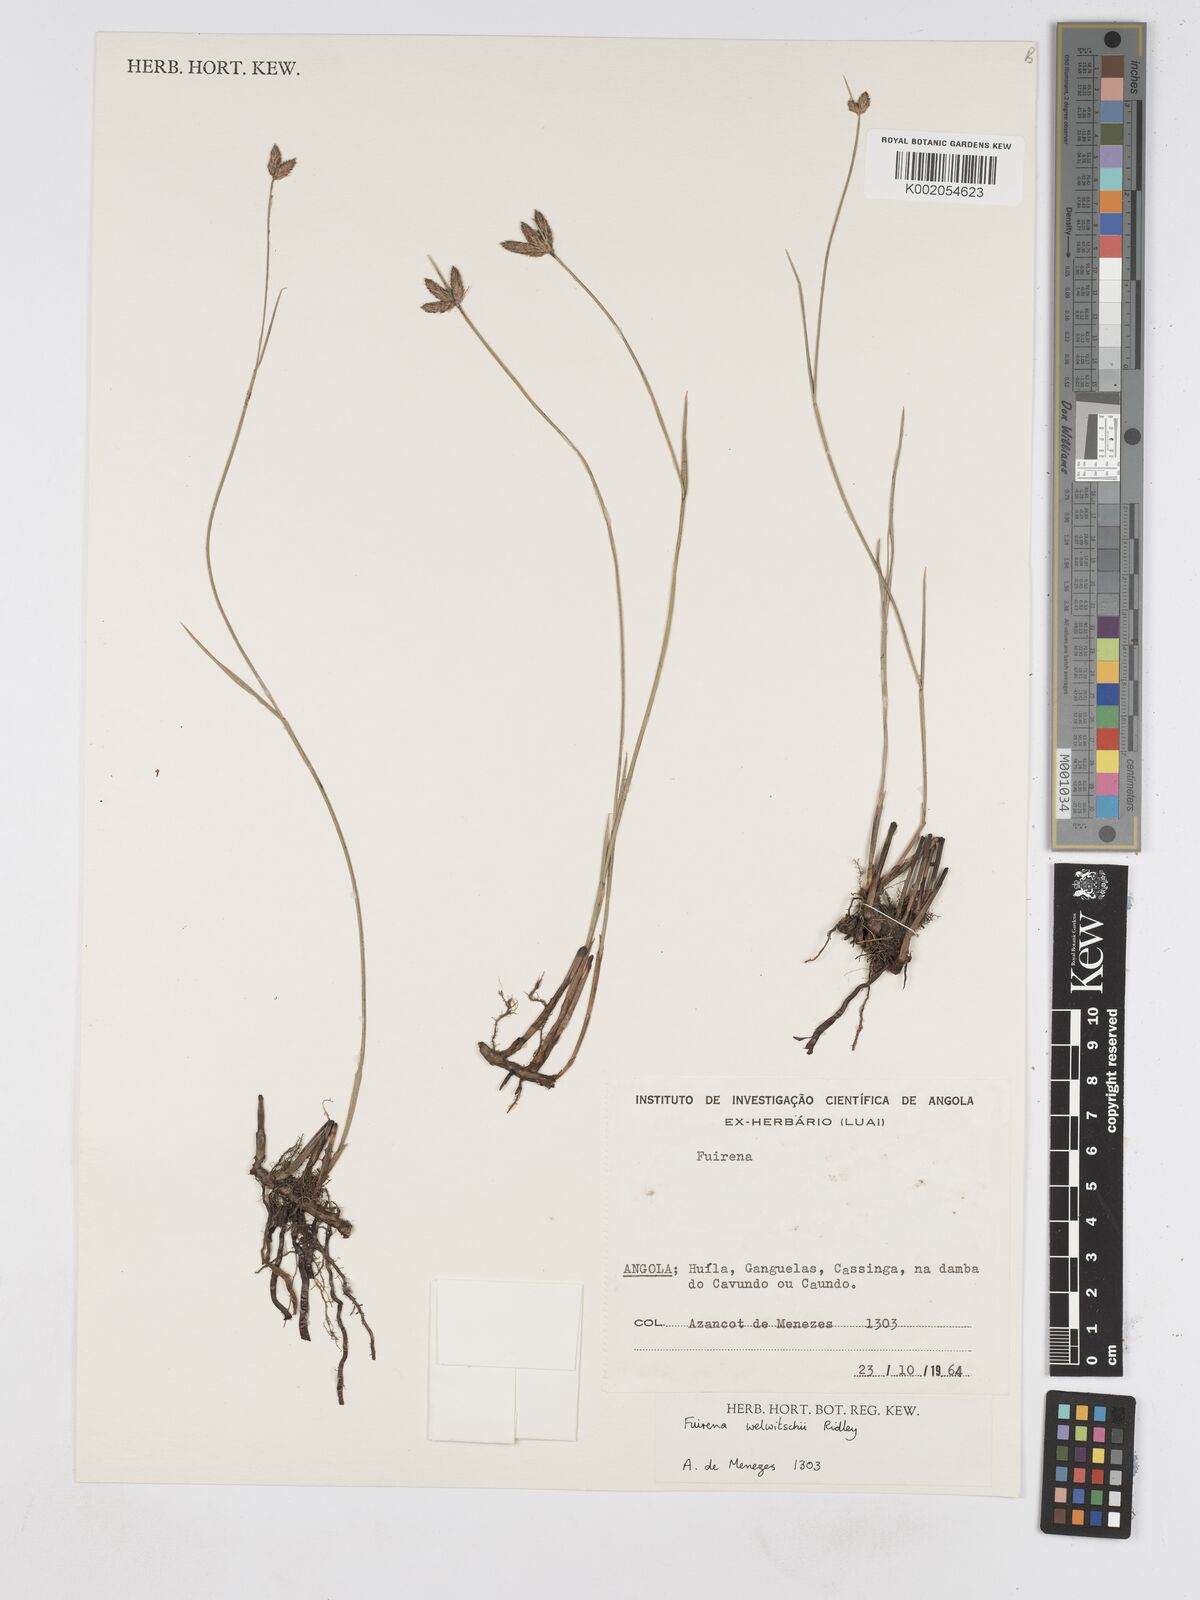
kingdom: Plantae
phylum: Tracheophyta
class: Liliopsida
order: Poales
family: Cyperaceae
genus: Fuirena
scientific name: Fuirena welwitschii
